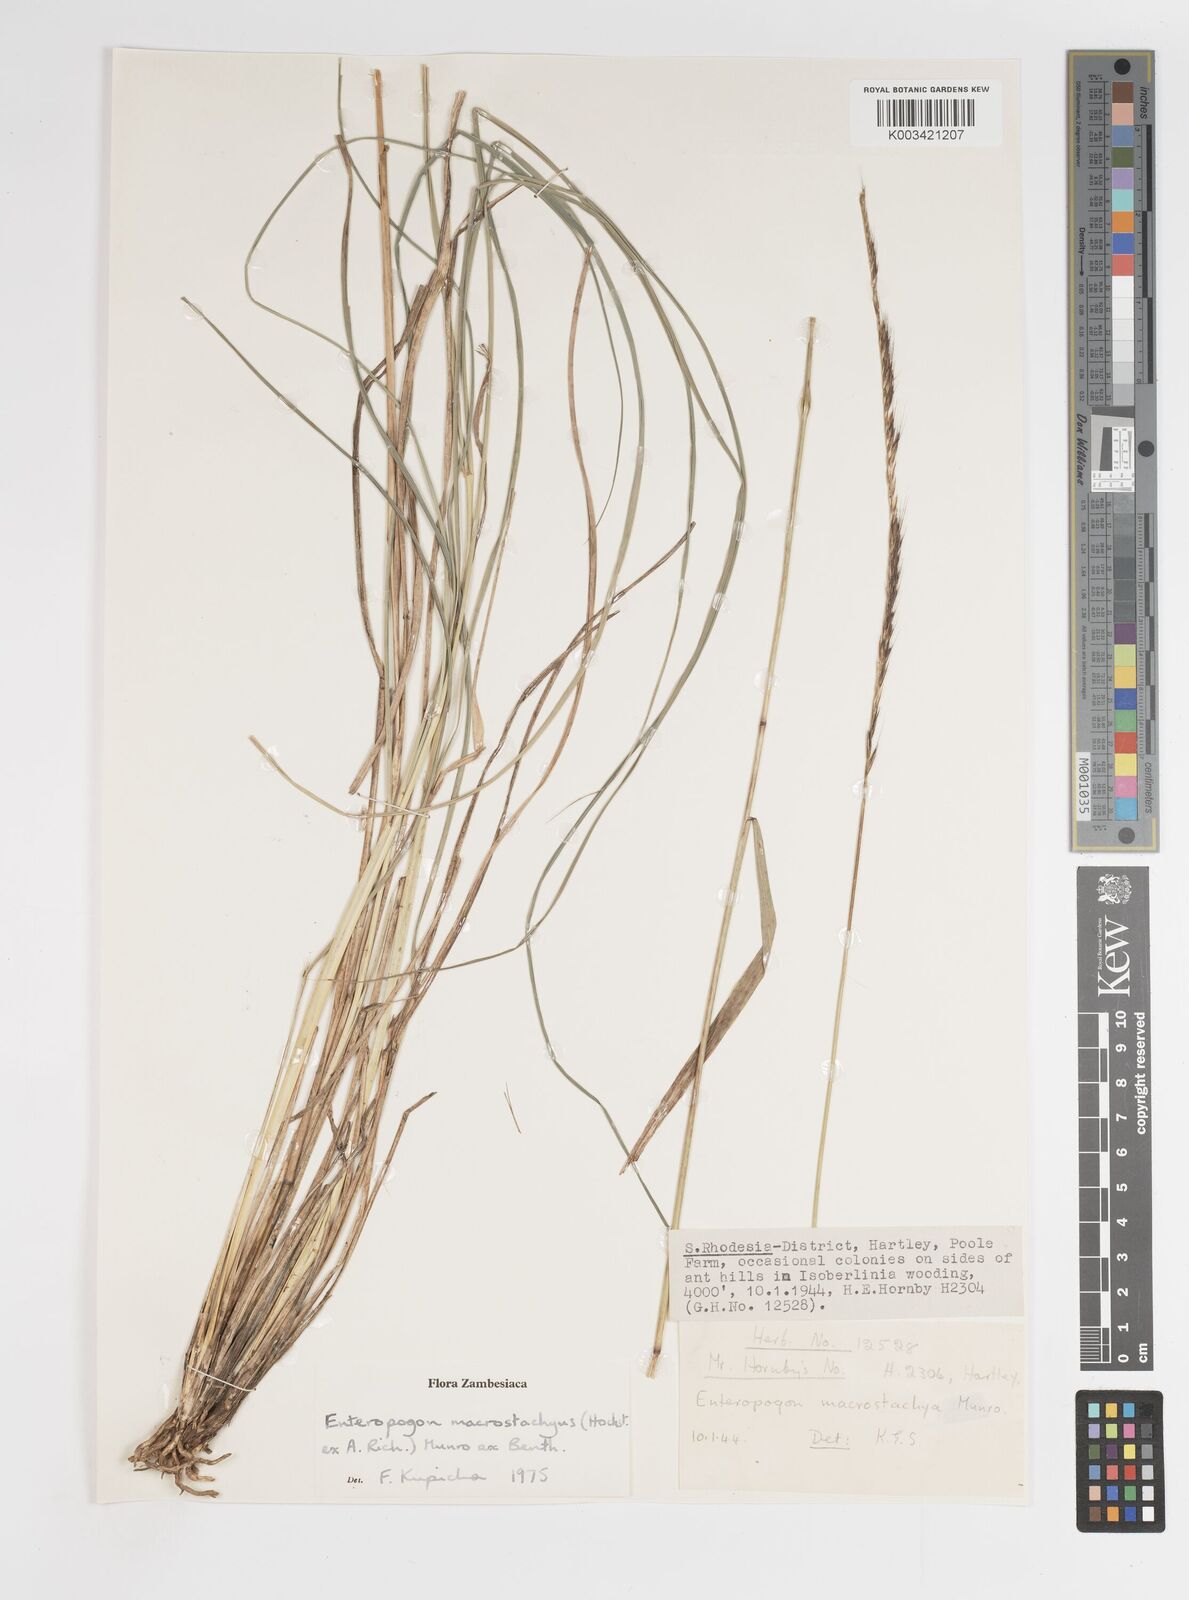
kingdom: Plantae
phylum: Tracheophyta
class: Liliopsida
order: Poales
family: Poaceae
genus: Enteropogon
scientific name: Enteropogon macrostachyus
